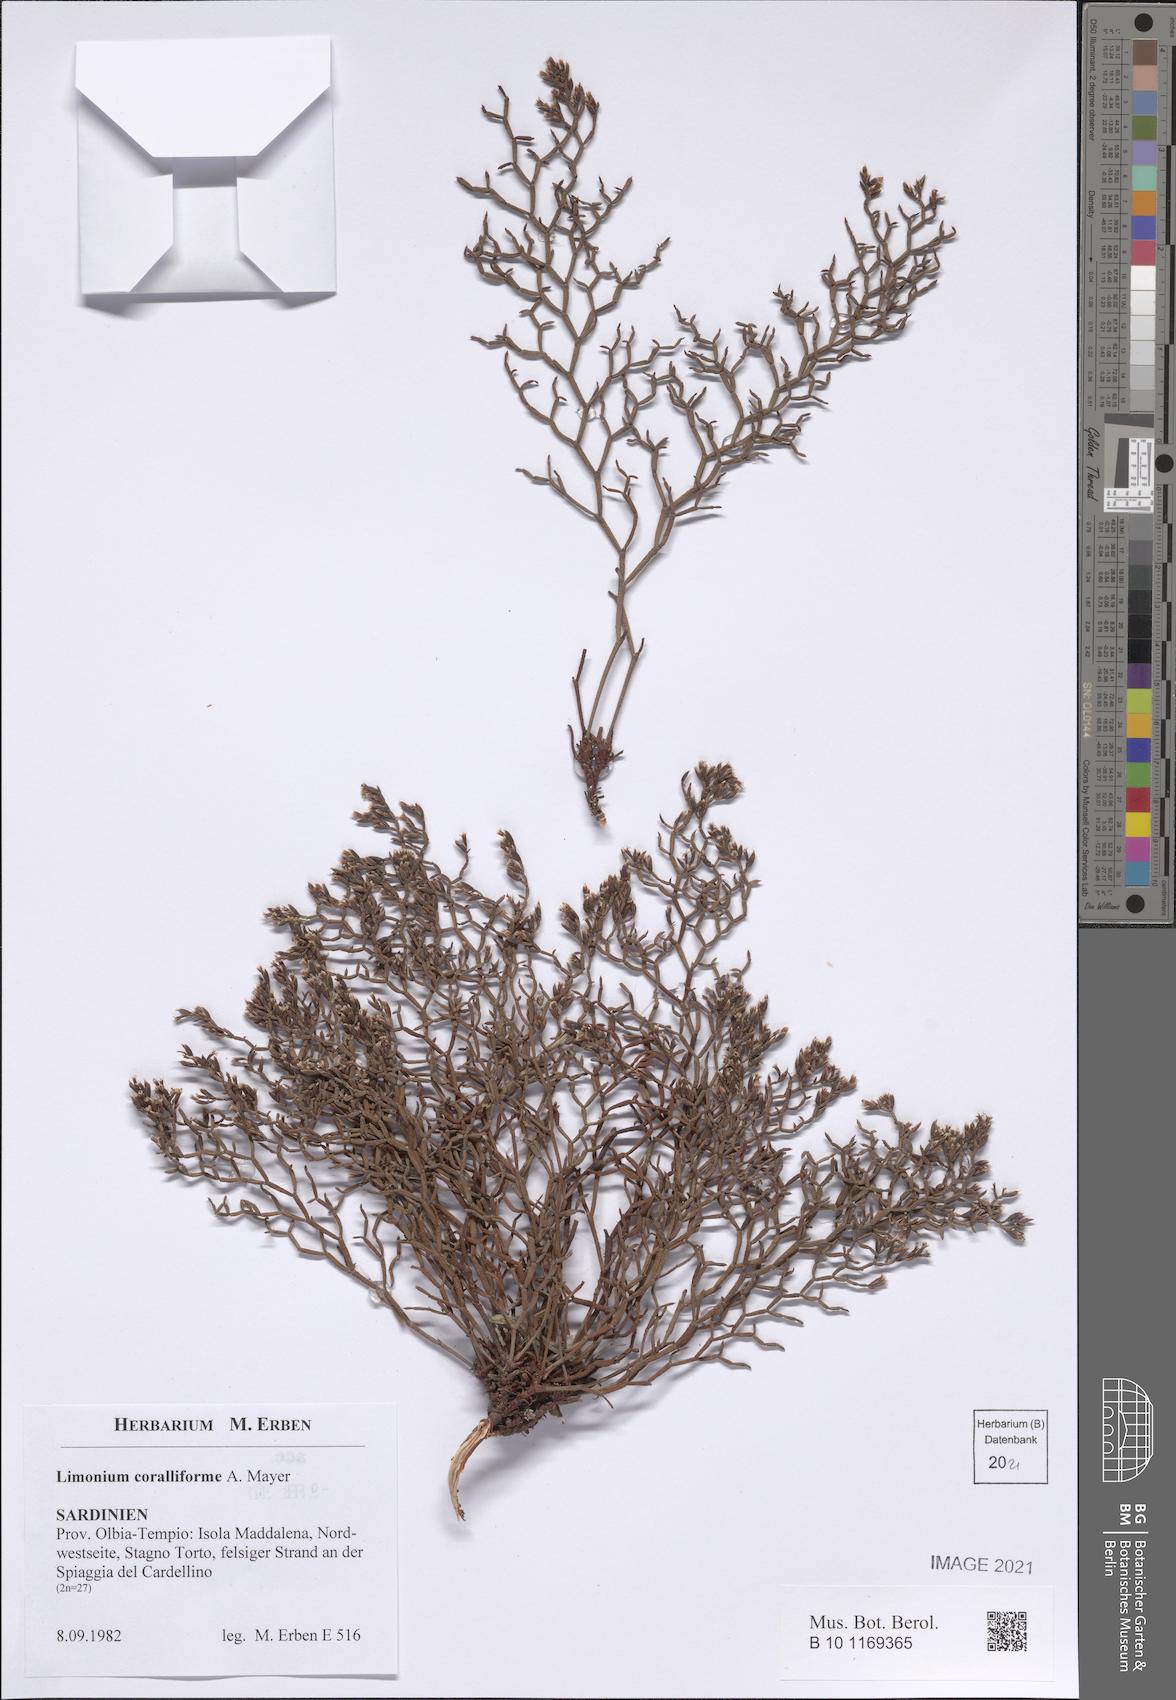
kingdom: Plantae
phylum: Tracheophyta
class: Magnoliopsida
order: Caryophyllales
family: Plumbaginaceae
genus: Limonium
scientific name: Limonium coralliforme
